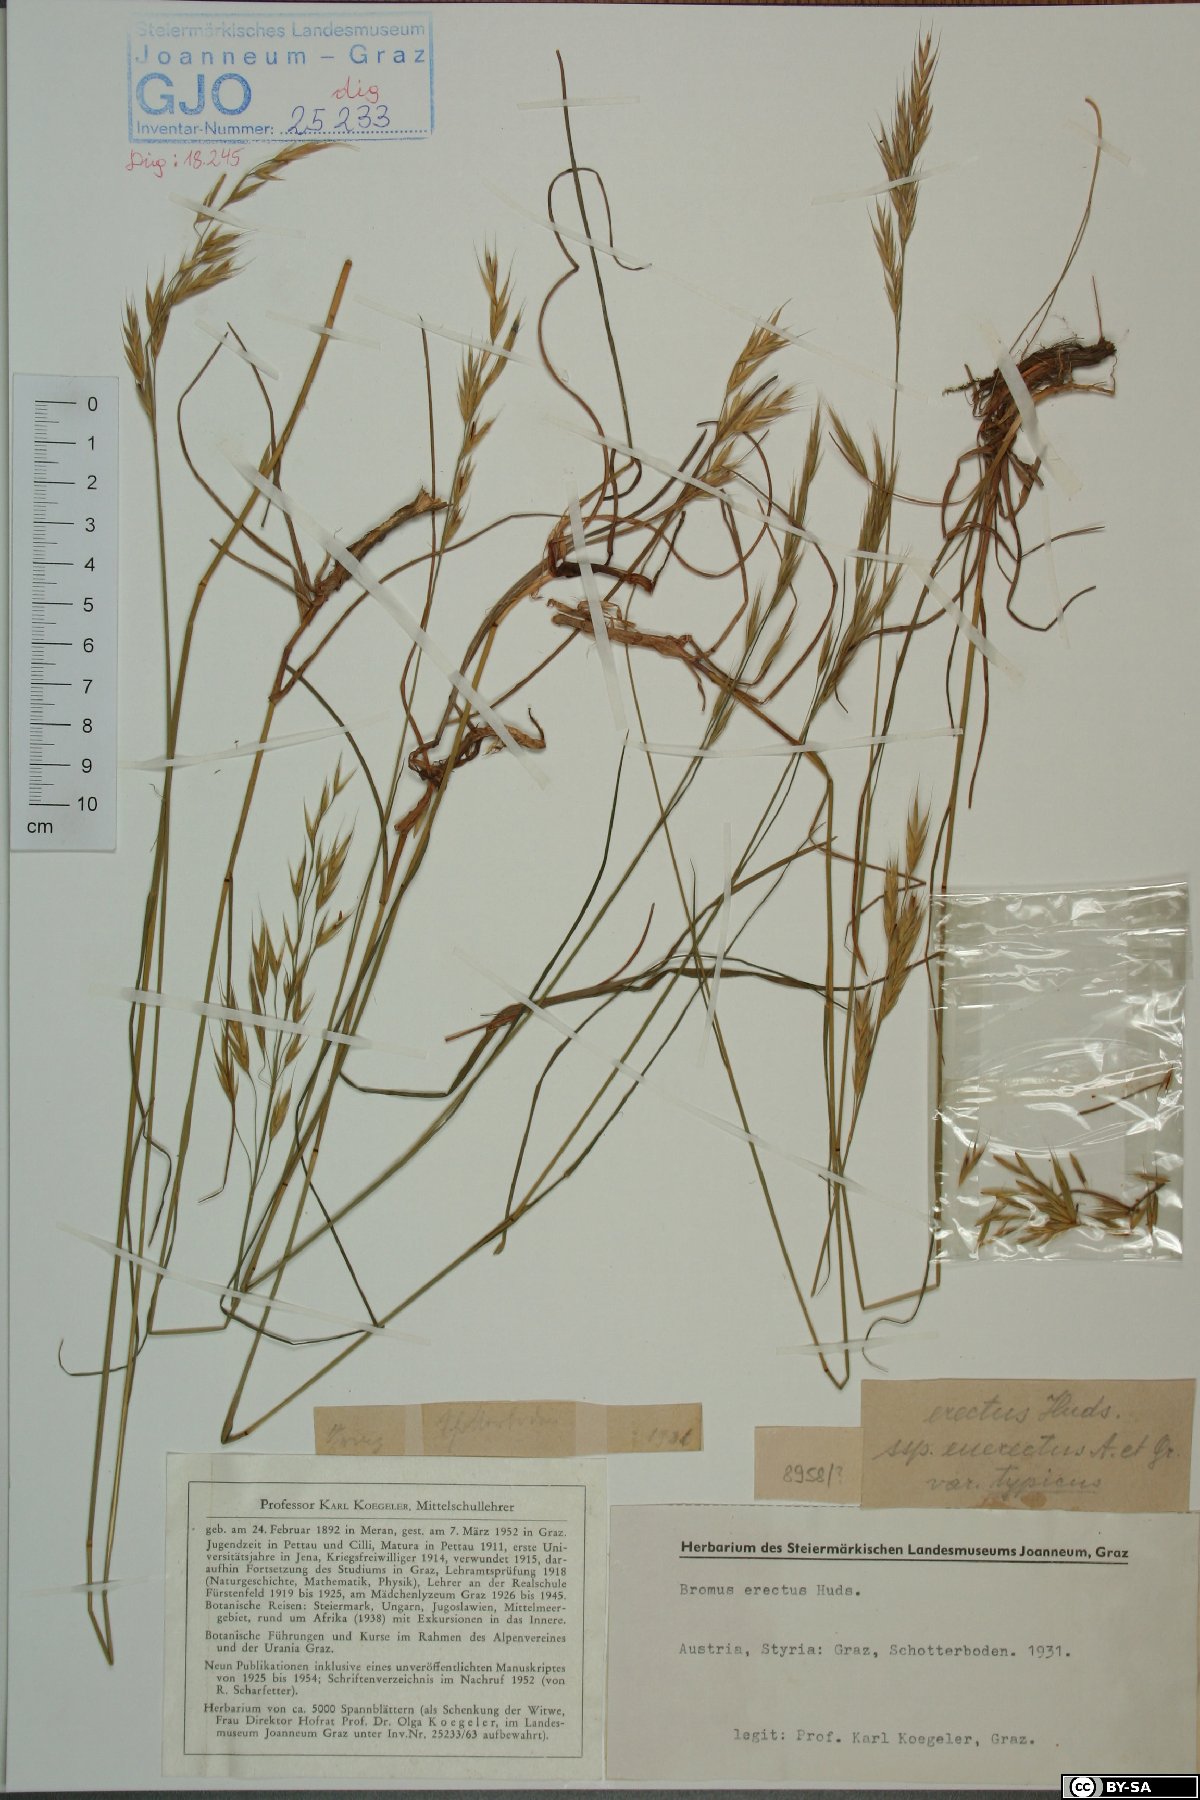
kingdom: Plantae
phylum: Tracheophyta
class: Liliopsida
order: Poales
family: Poaceae
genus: Bromus
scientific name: Bromus erectus
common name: Erect brome
